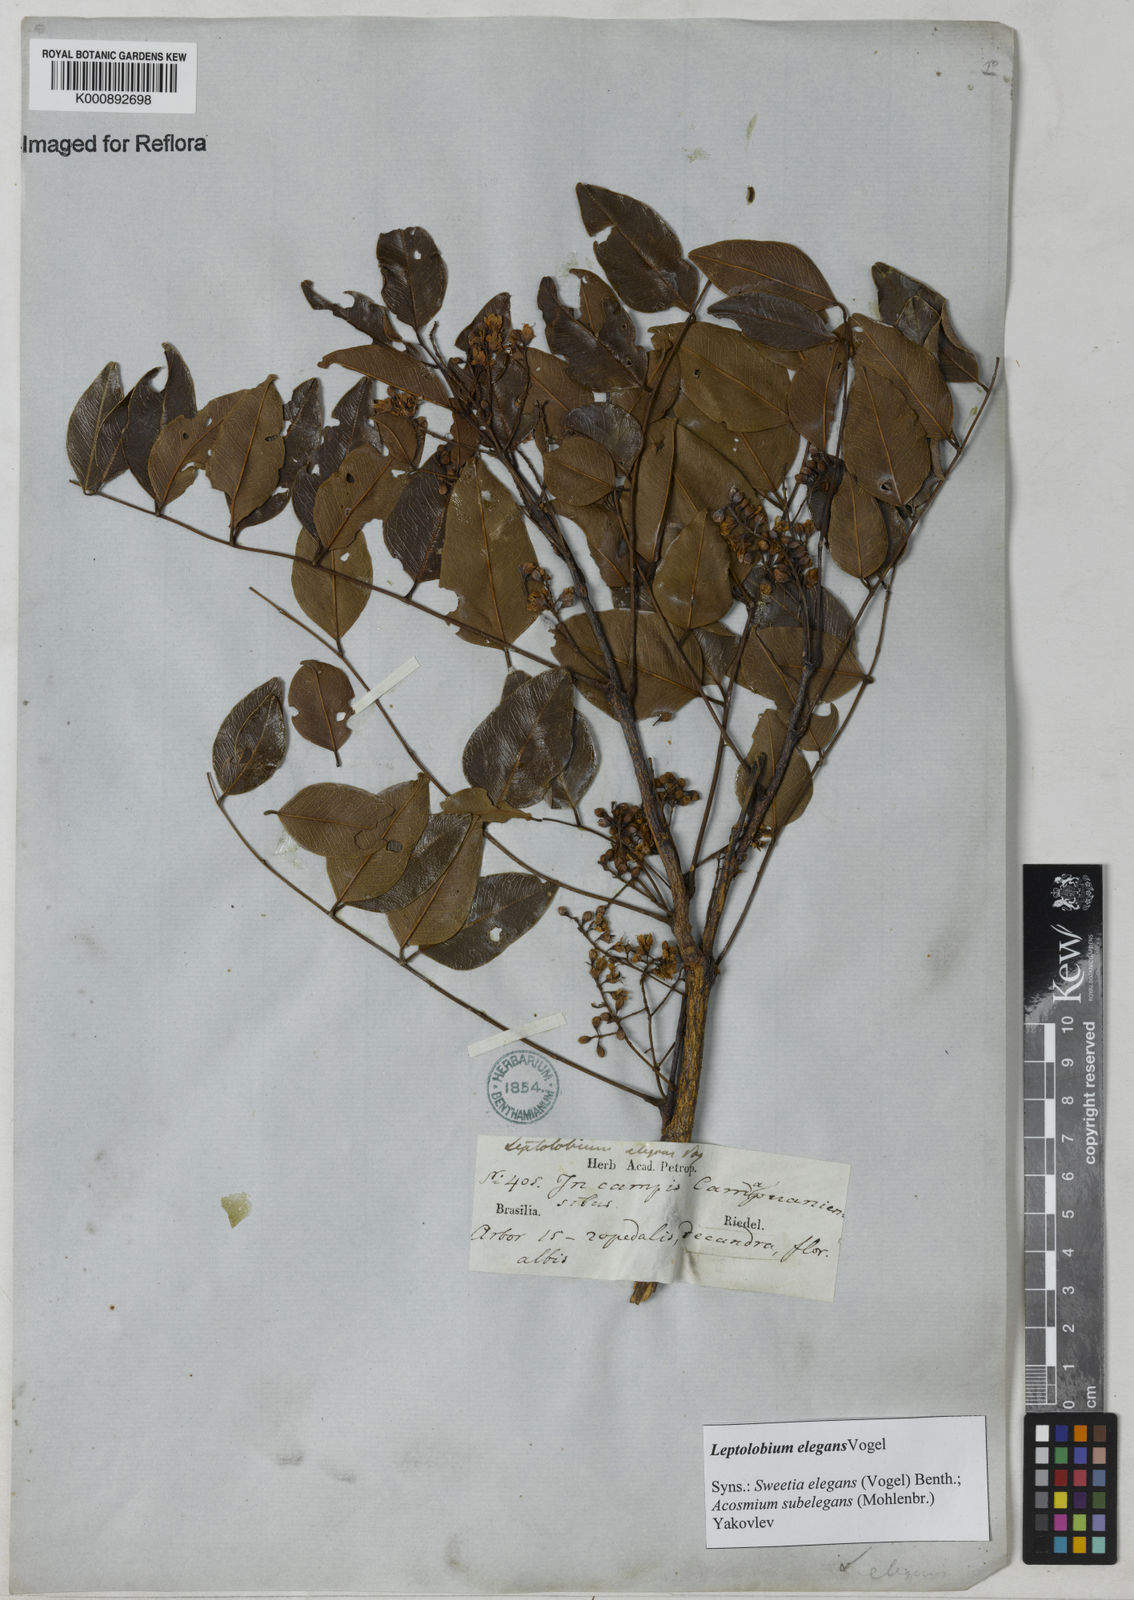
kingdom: Plantae
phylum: Tracheophyta
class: Magnoliopsida
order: Fabales
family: Fabaceae
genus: Leptolobium
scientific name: Leptolobium elegans
